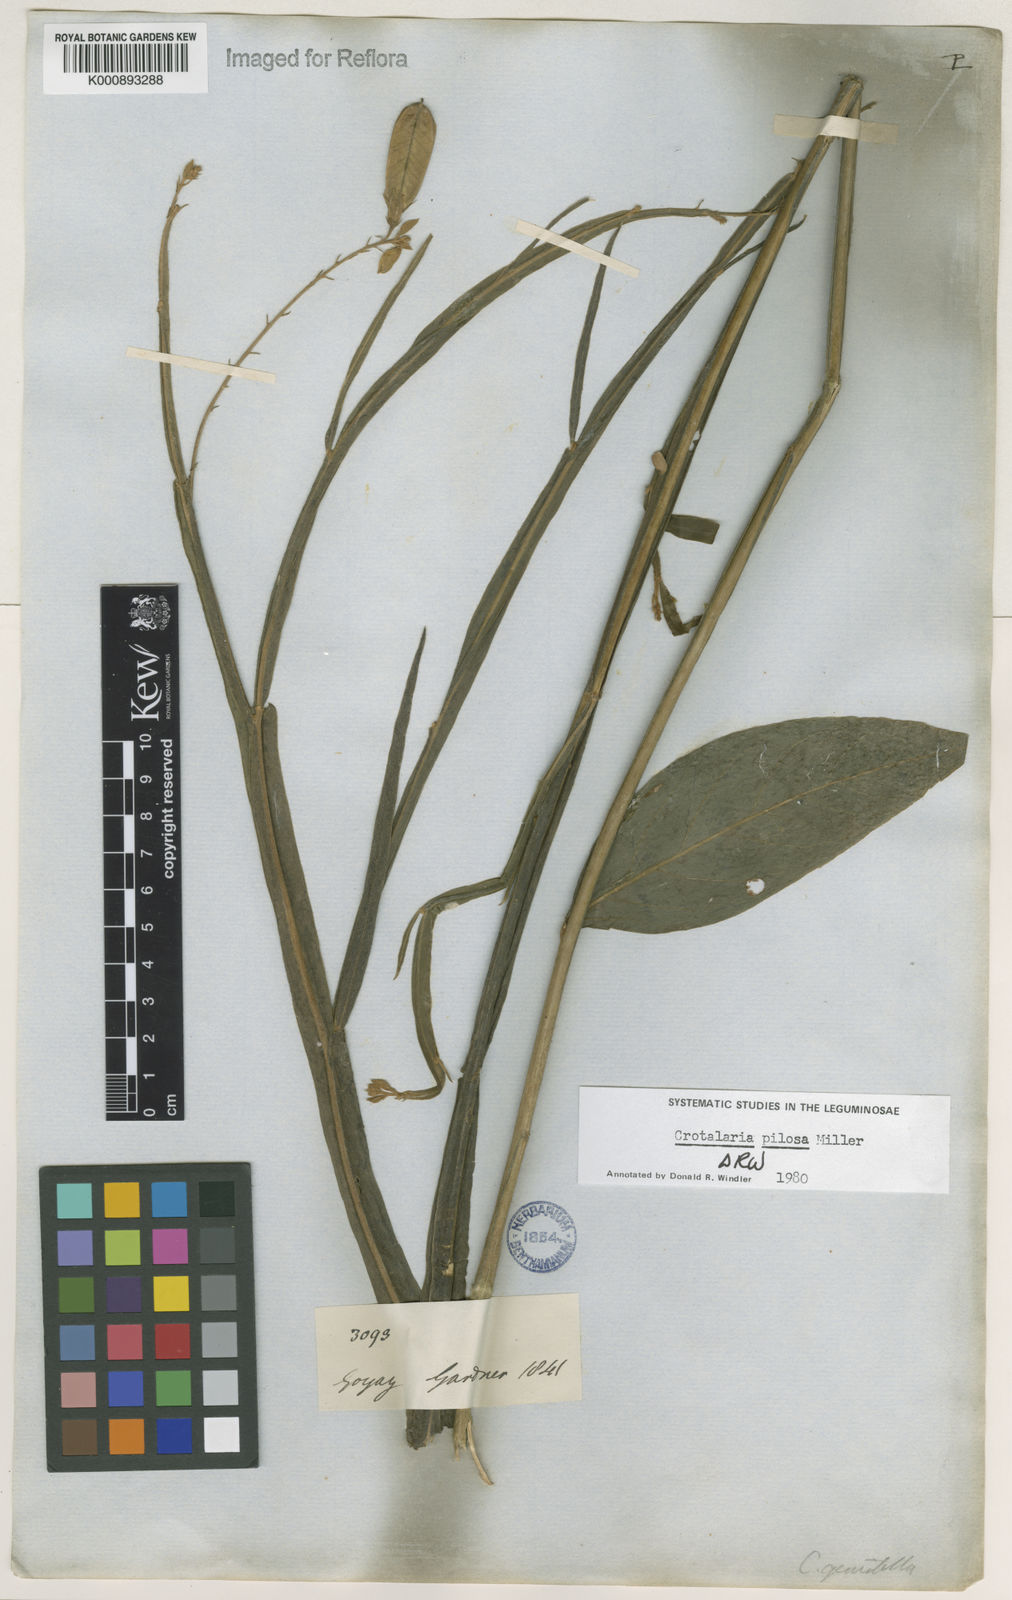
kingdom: Plantae
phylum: Tracheophyta
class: Magnoliopsida
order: Fabales
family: Fabaceae
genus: Crotalaria
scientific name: Crotalaria pilosa
